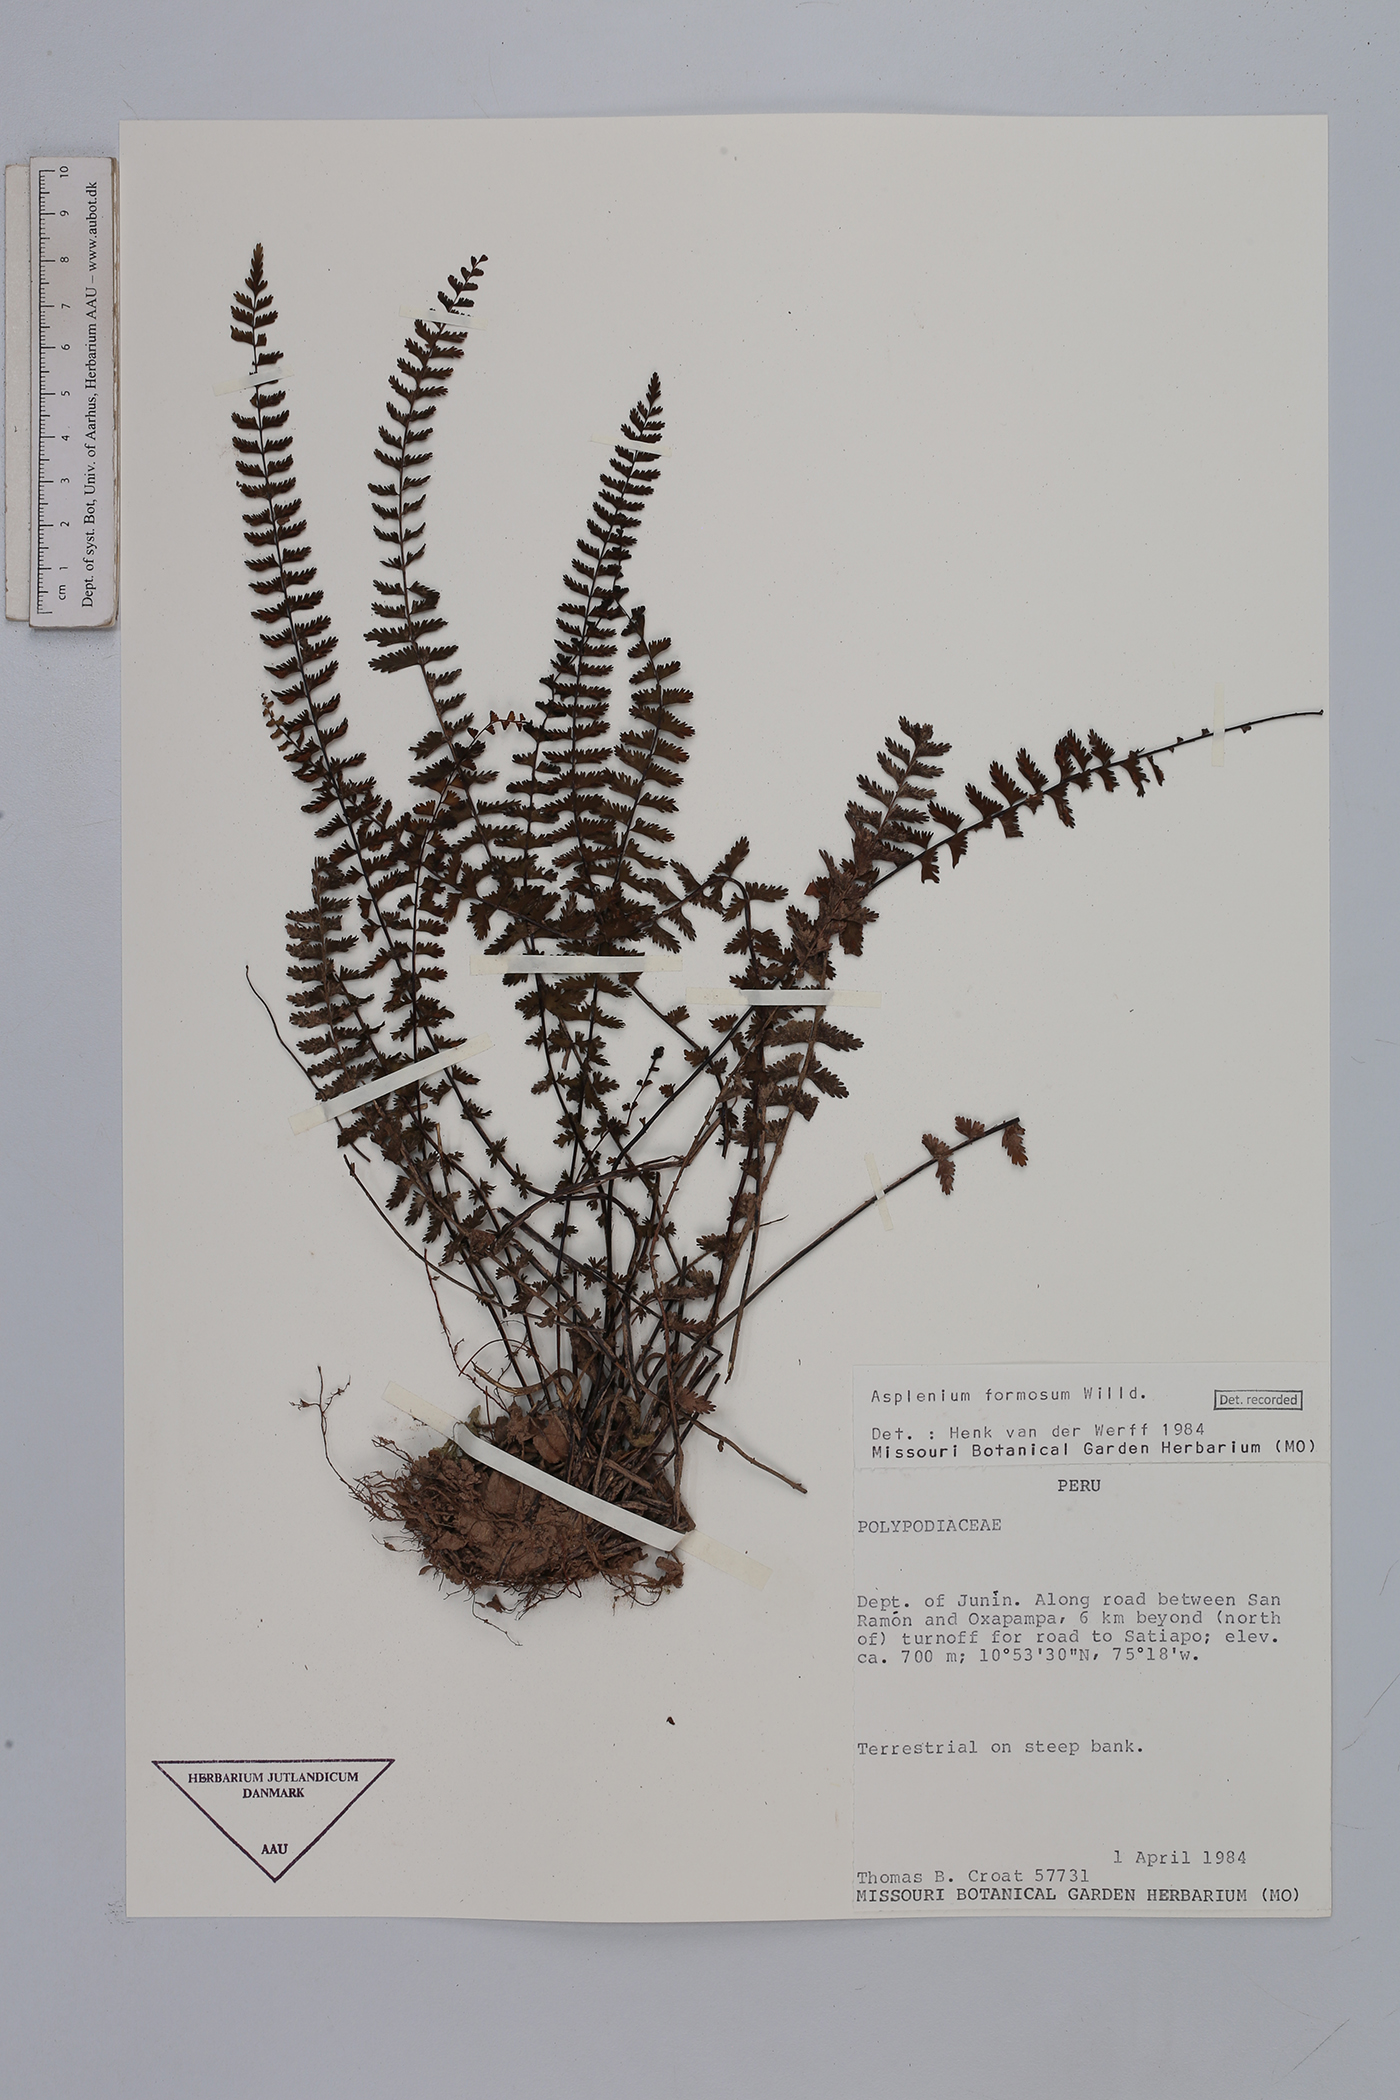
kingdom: Plantae
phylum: Tracheophyta
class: Polypodiopsida
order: Polypodiales
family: Aspleniaceae
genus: Asplenium
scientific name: Asplenium formosum
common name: Showy spleenwort
